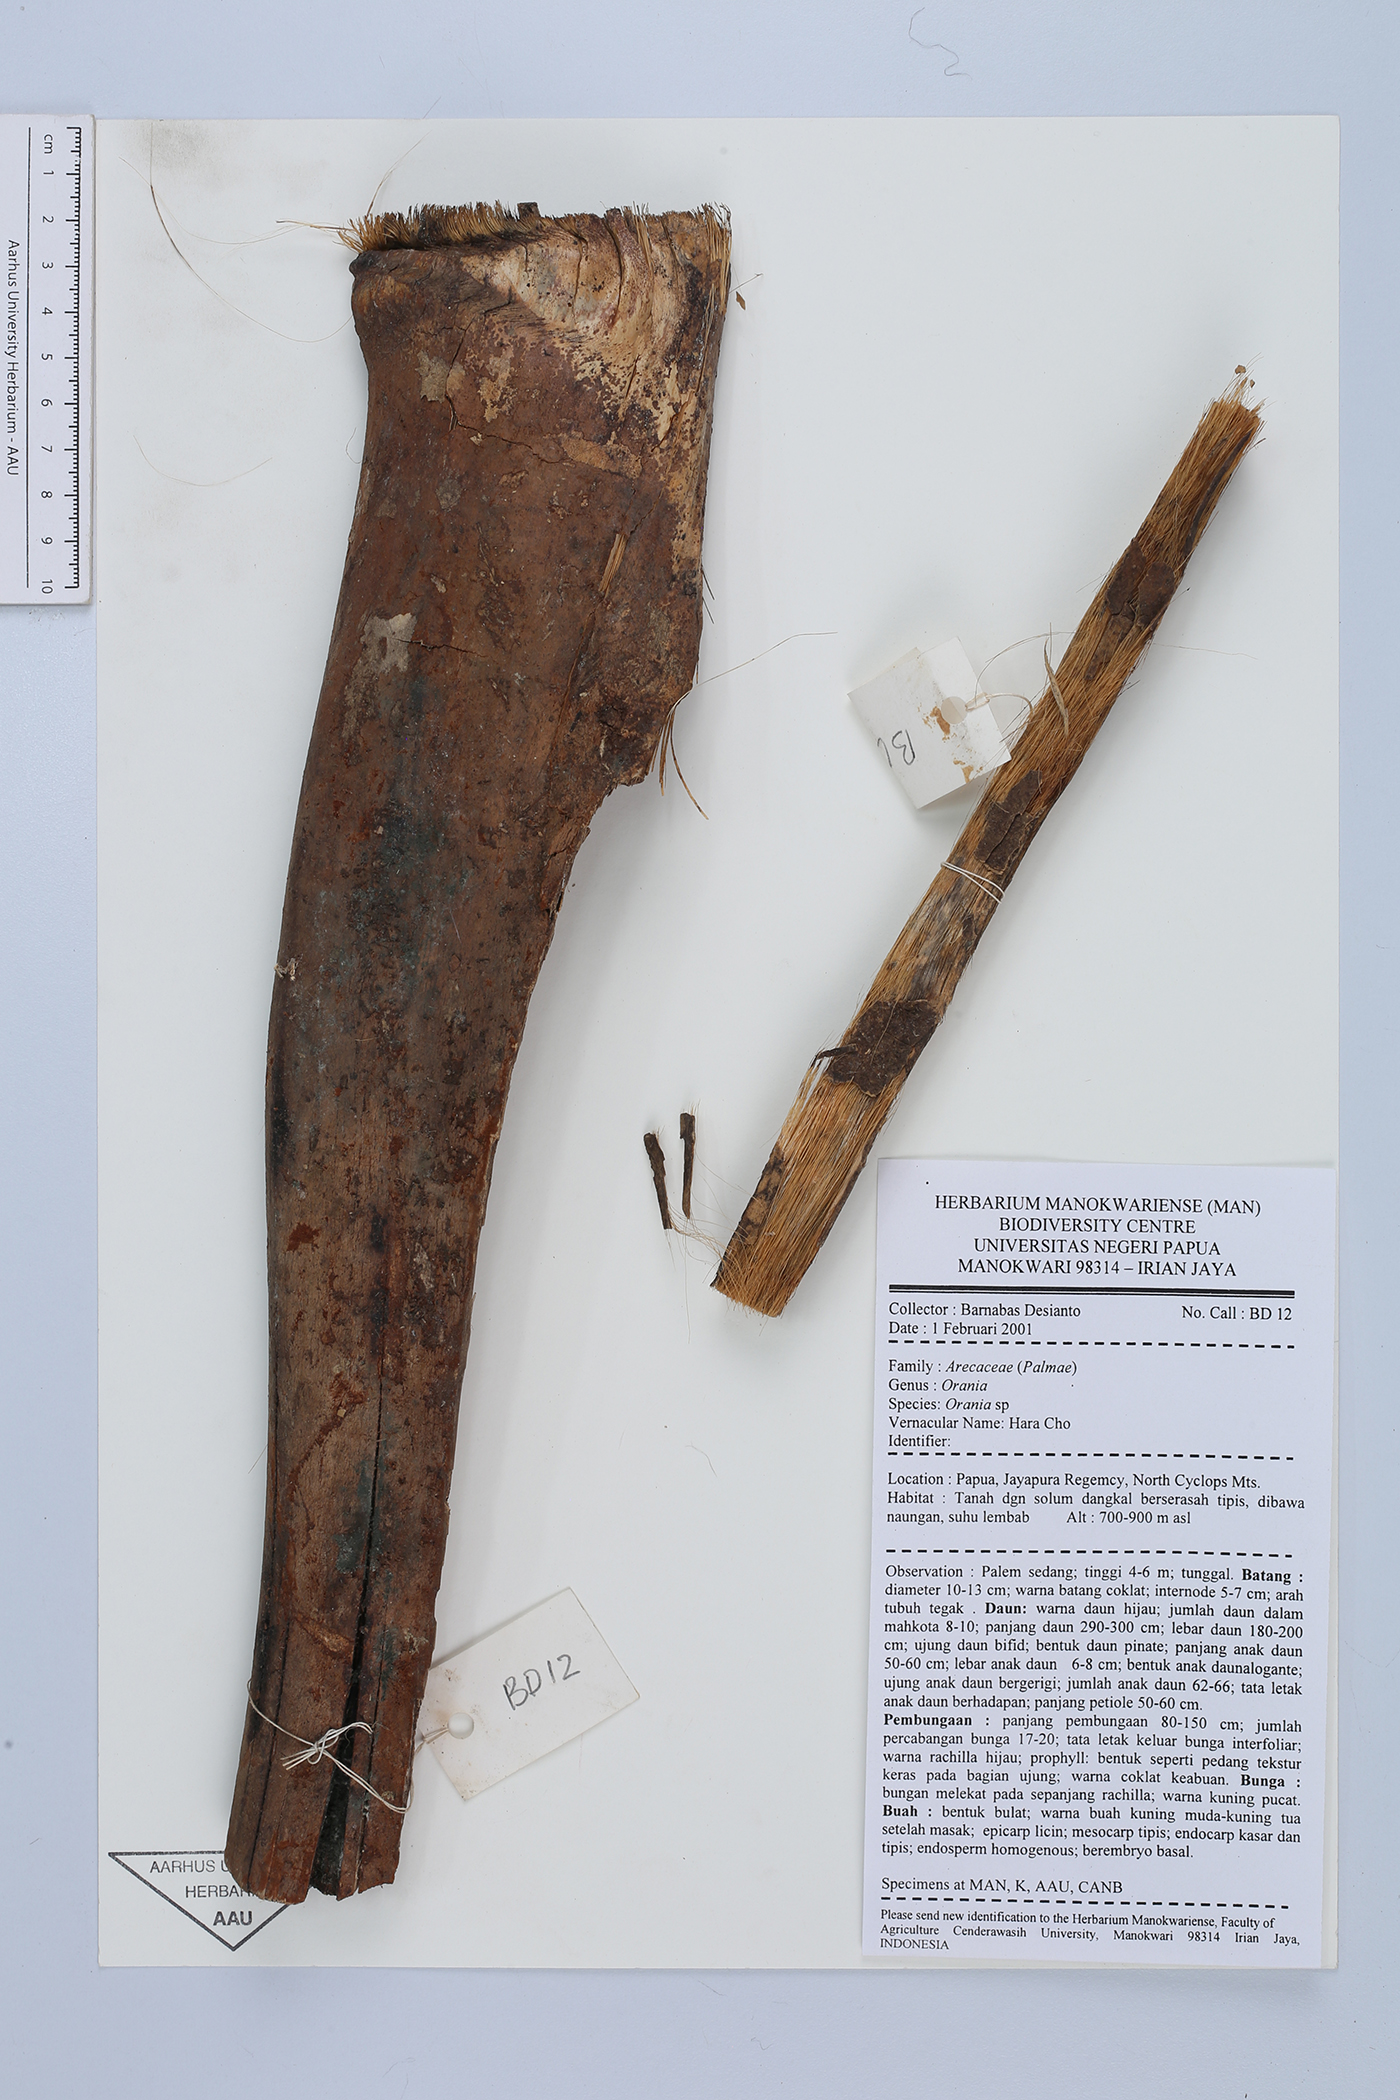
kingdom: Plantae
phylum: Tracheophyta
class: Liliopsida
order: Arecales
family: Arecaceae
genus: Orania
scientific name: Orania
